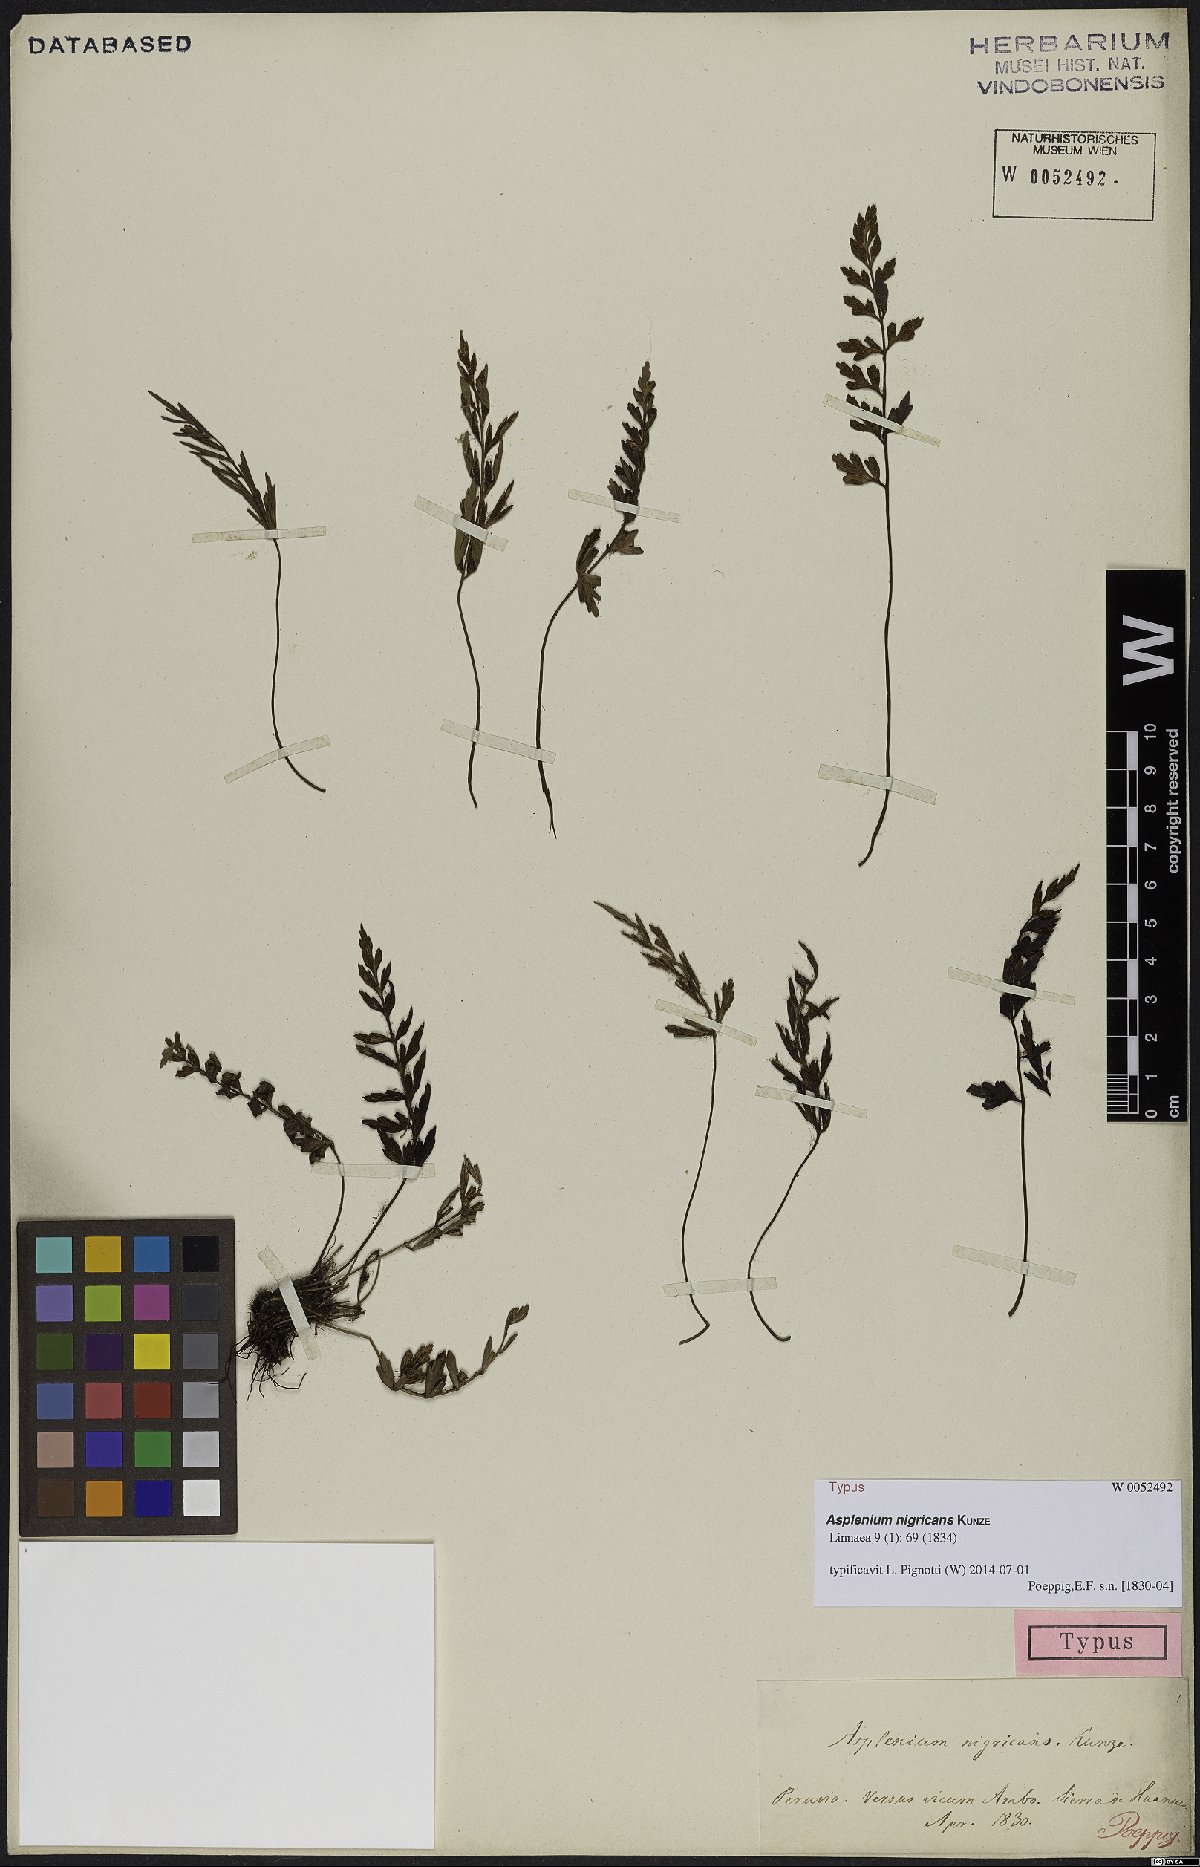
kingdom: Plantae
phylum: Tracheophyta
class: Polypodiopsida
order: Polypodiales
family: Aspleniaceae
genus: Asplenium
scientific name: Asplenium aethiopicum
